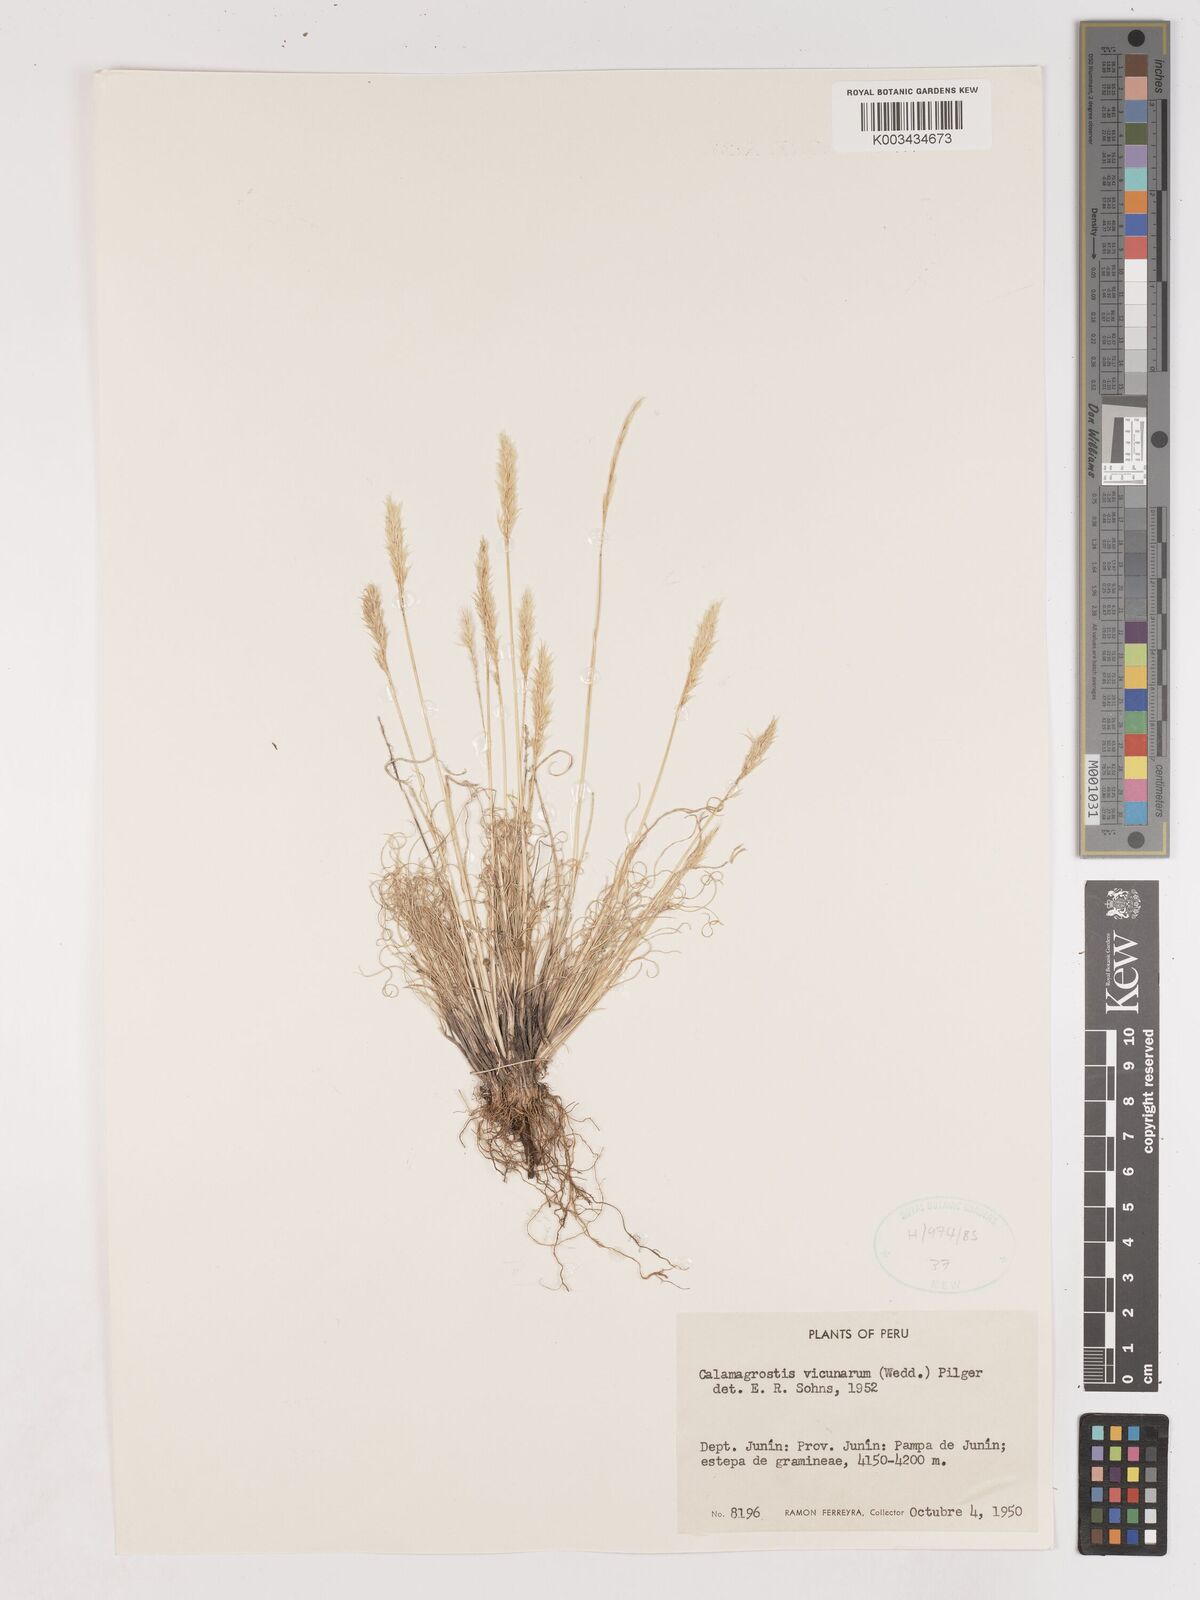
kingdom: Plantae
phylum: Tracheophyta
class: Liliopsida
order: Poales
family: Poaceae
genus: Cinnagrostis
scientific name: Cinnagrostis vicunarum
